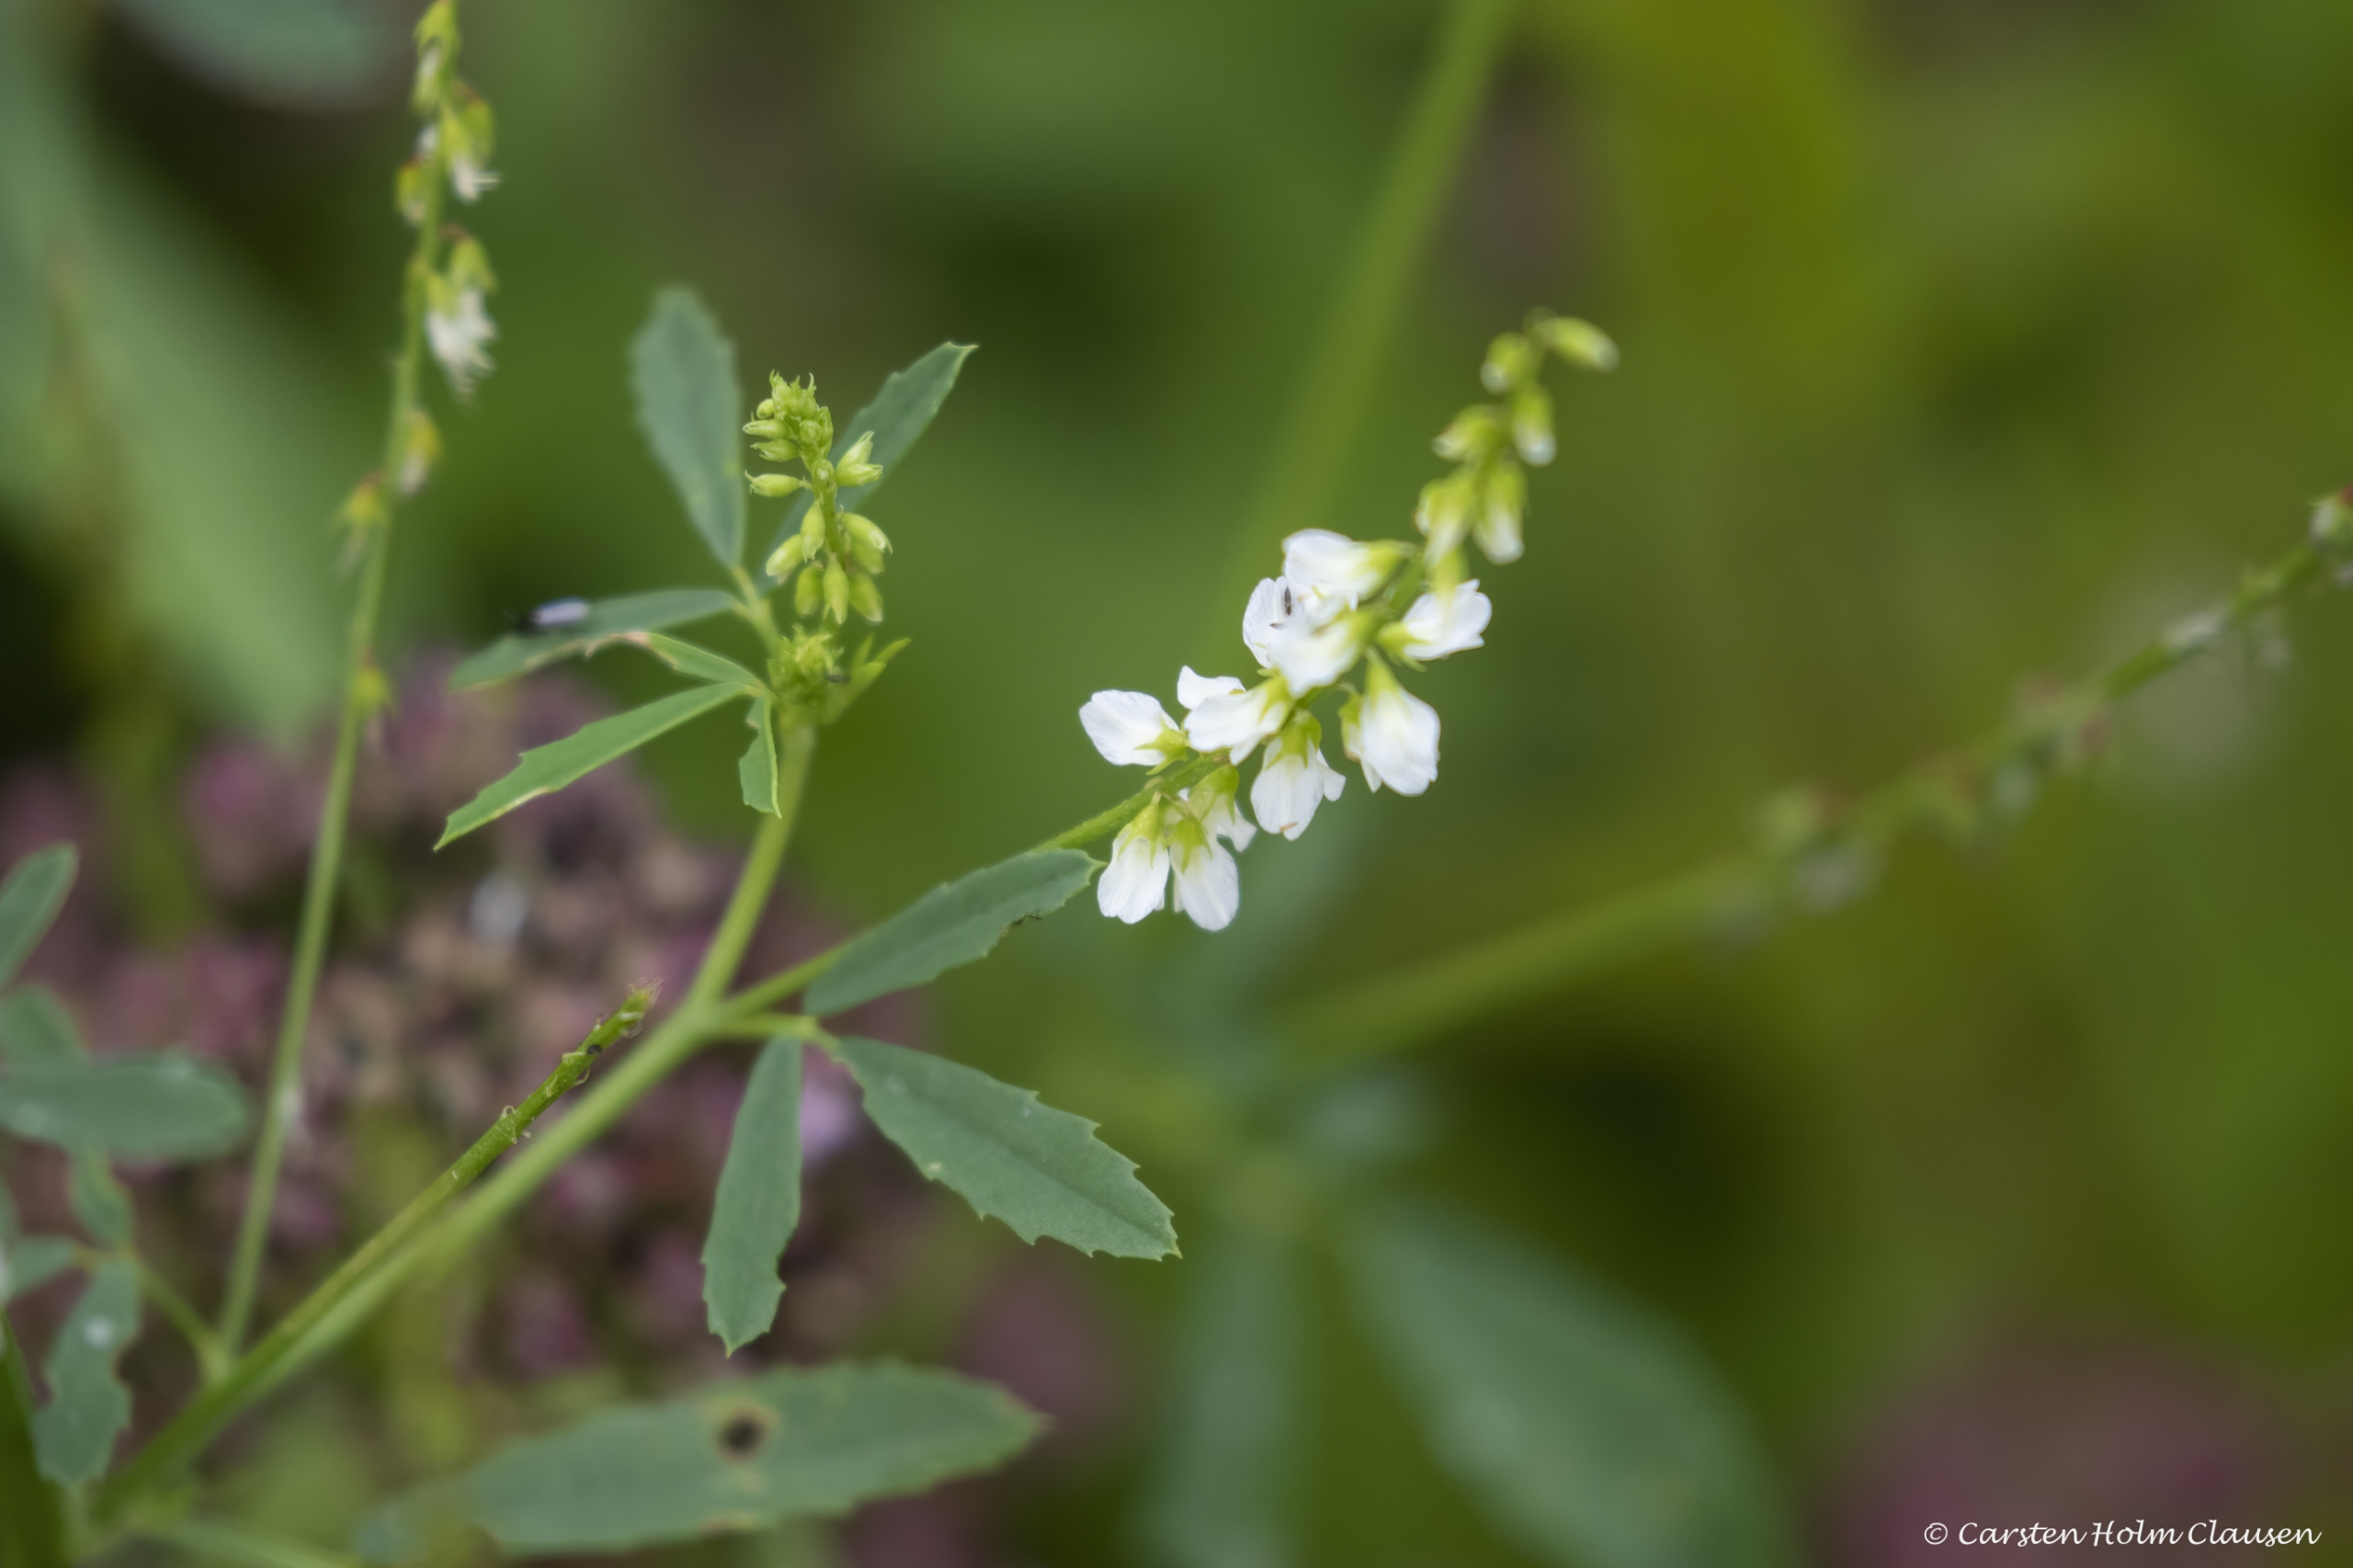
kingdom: Plantae
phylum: Tracheophyta
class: Magnoliopsida
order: Fabales
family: Fabaceae
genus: Melilotus
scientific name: Melilotus albus
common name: Hvid stenkløver
